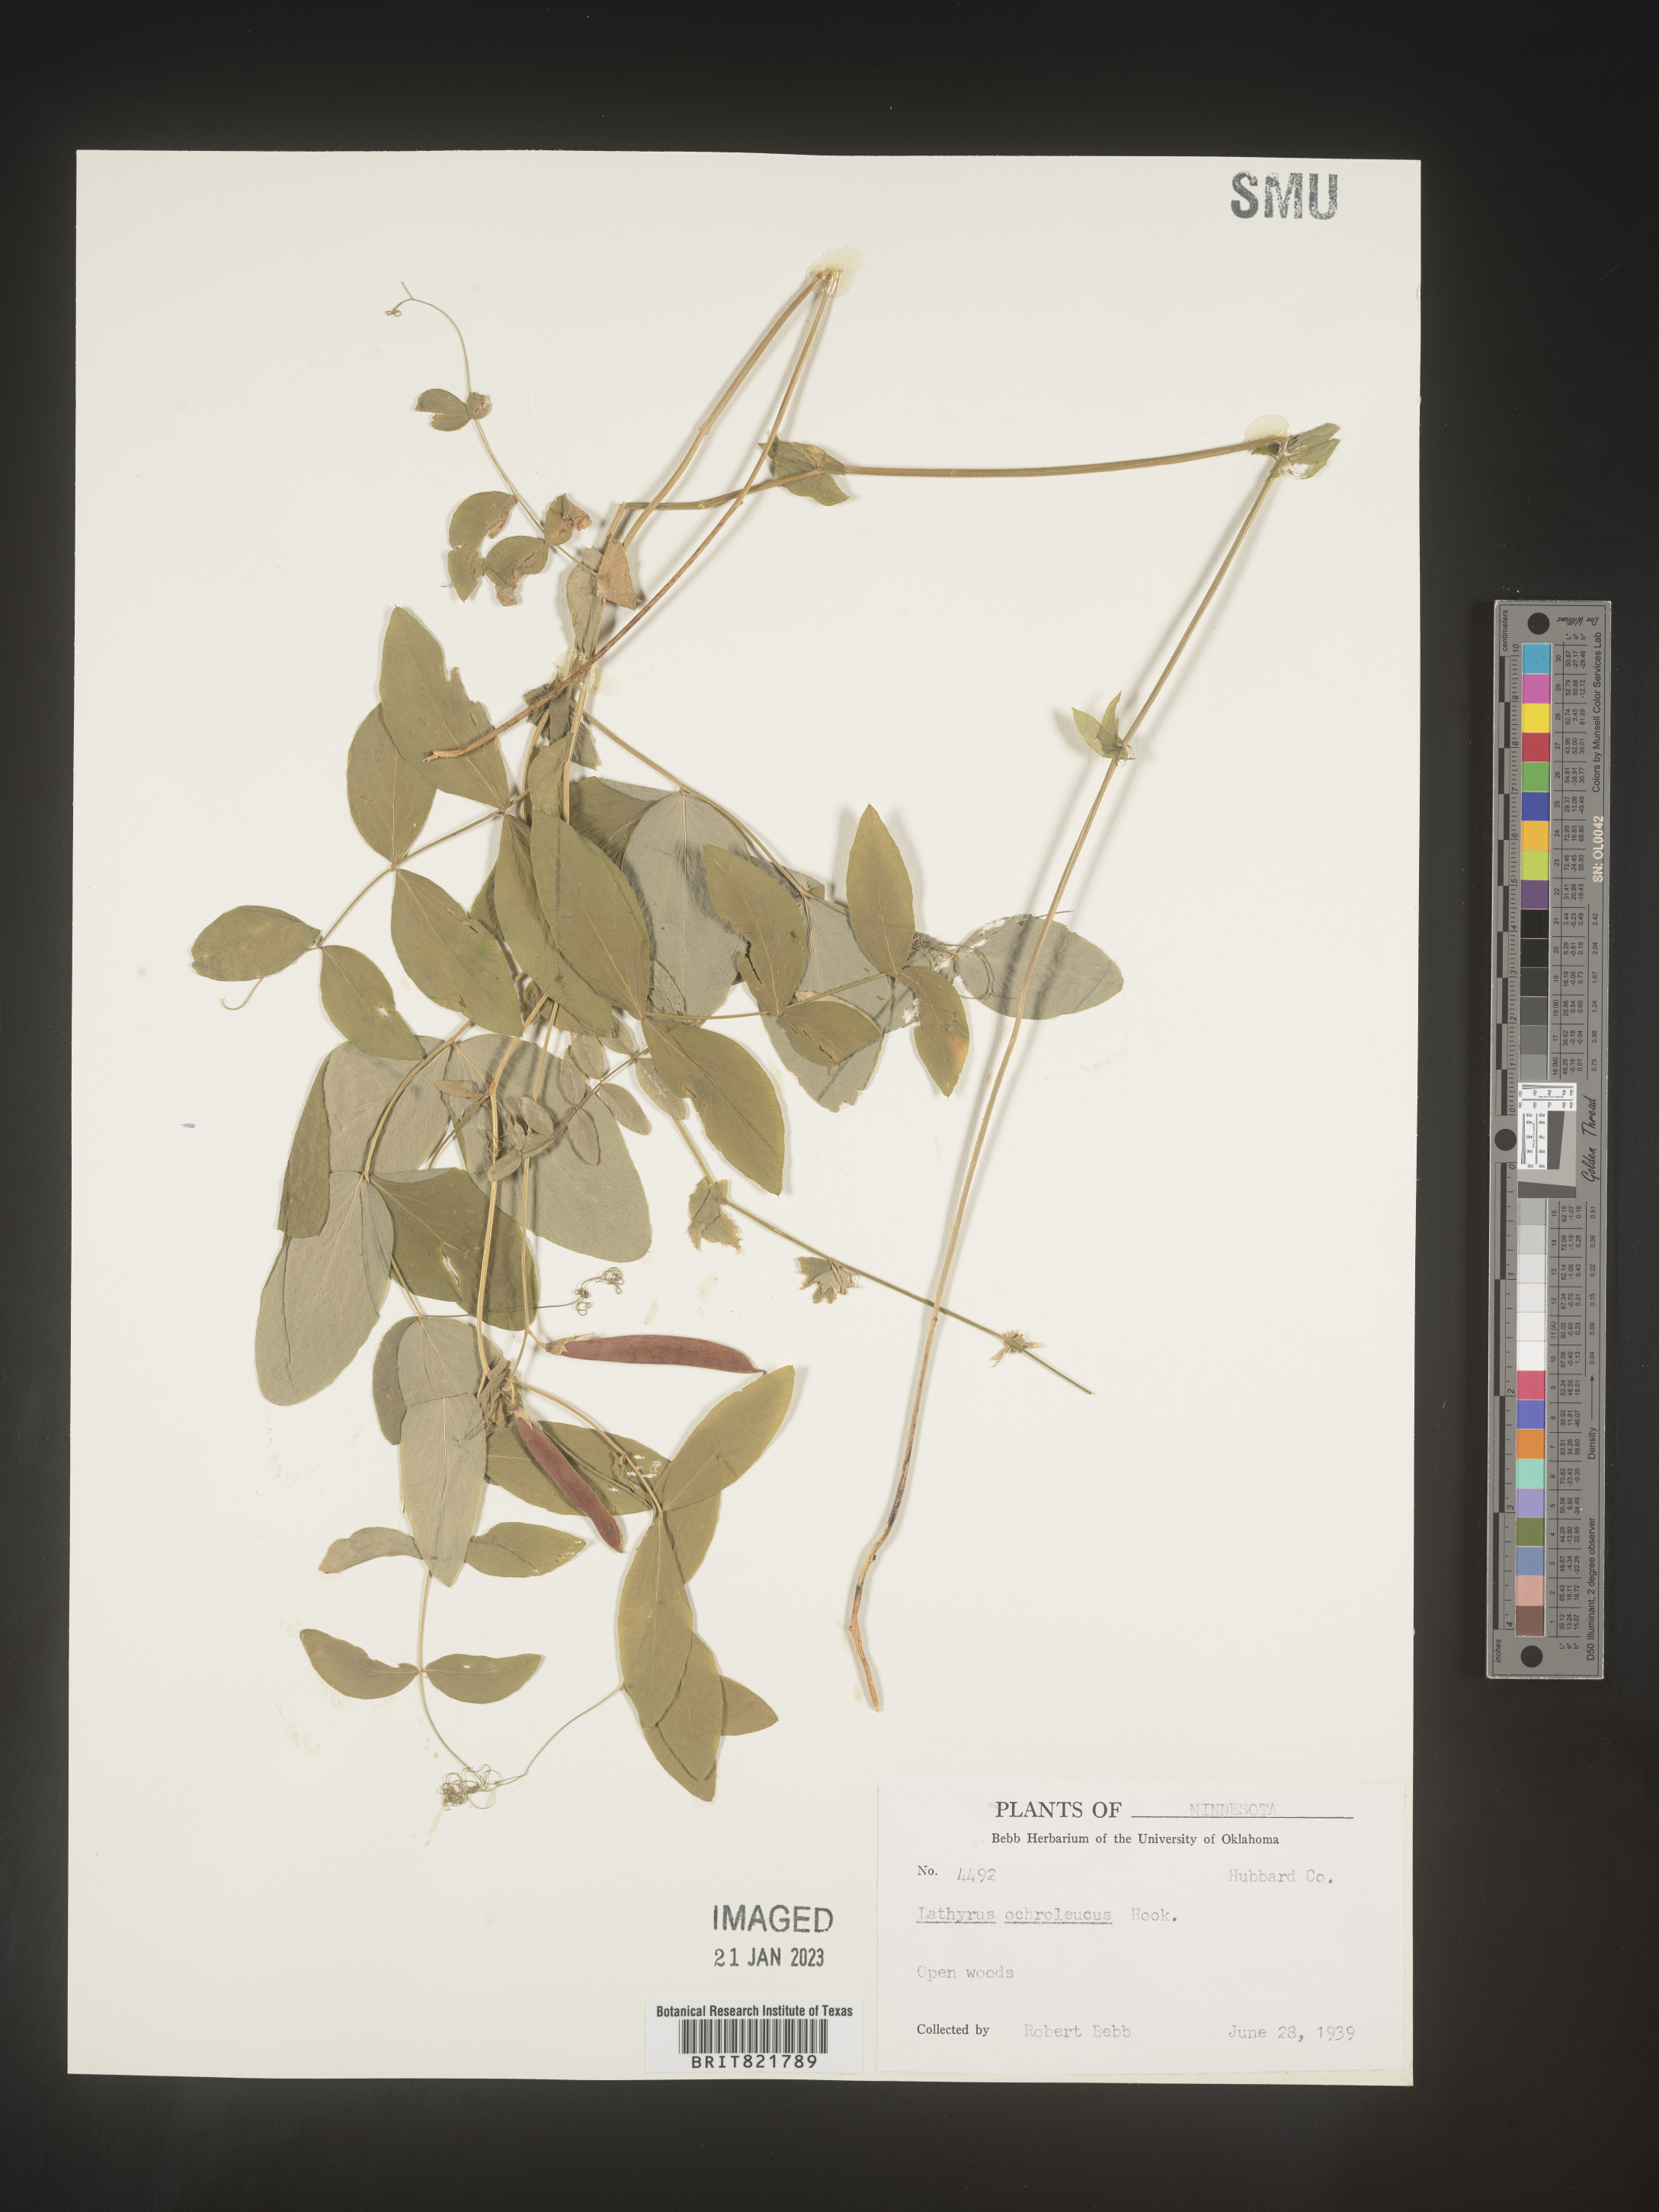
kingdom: Plantae
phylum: Tracheophyta
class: Magnoliopsida
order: Fabales
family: Fabaceae
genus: Lathyrus
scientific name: Lathyrus
